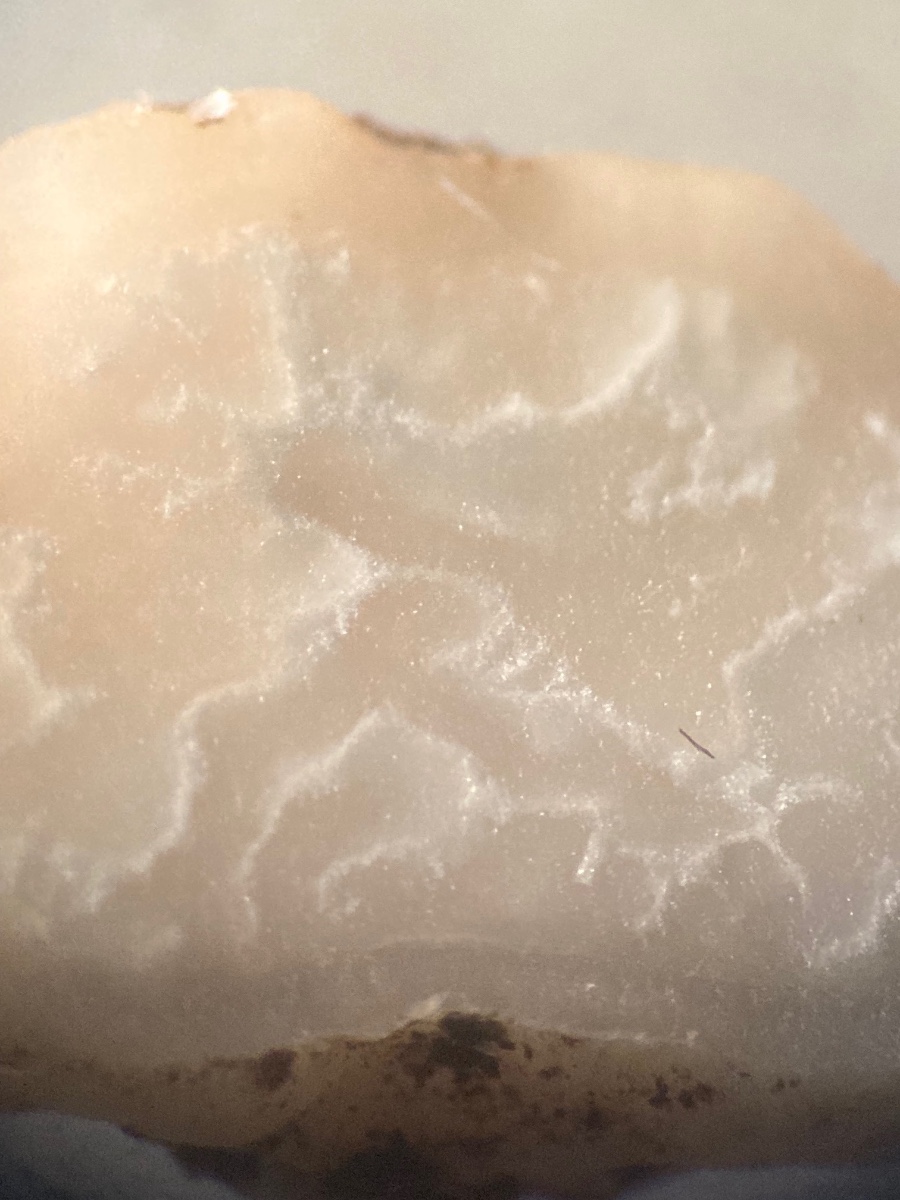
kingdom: Fungi
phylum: Ascomycota
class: Pezizomycetes
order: Pezizales
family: Tuberaceae
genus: Tuber
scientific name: Tuber
